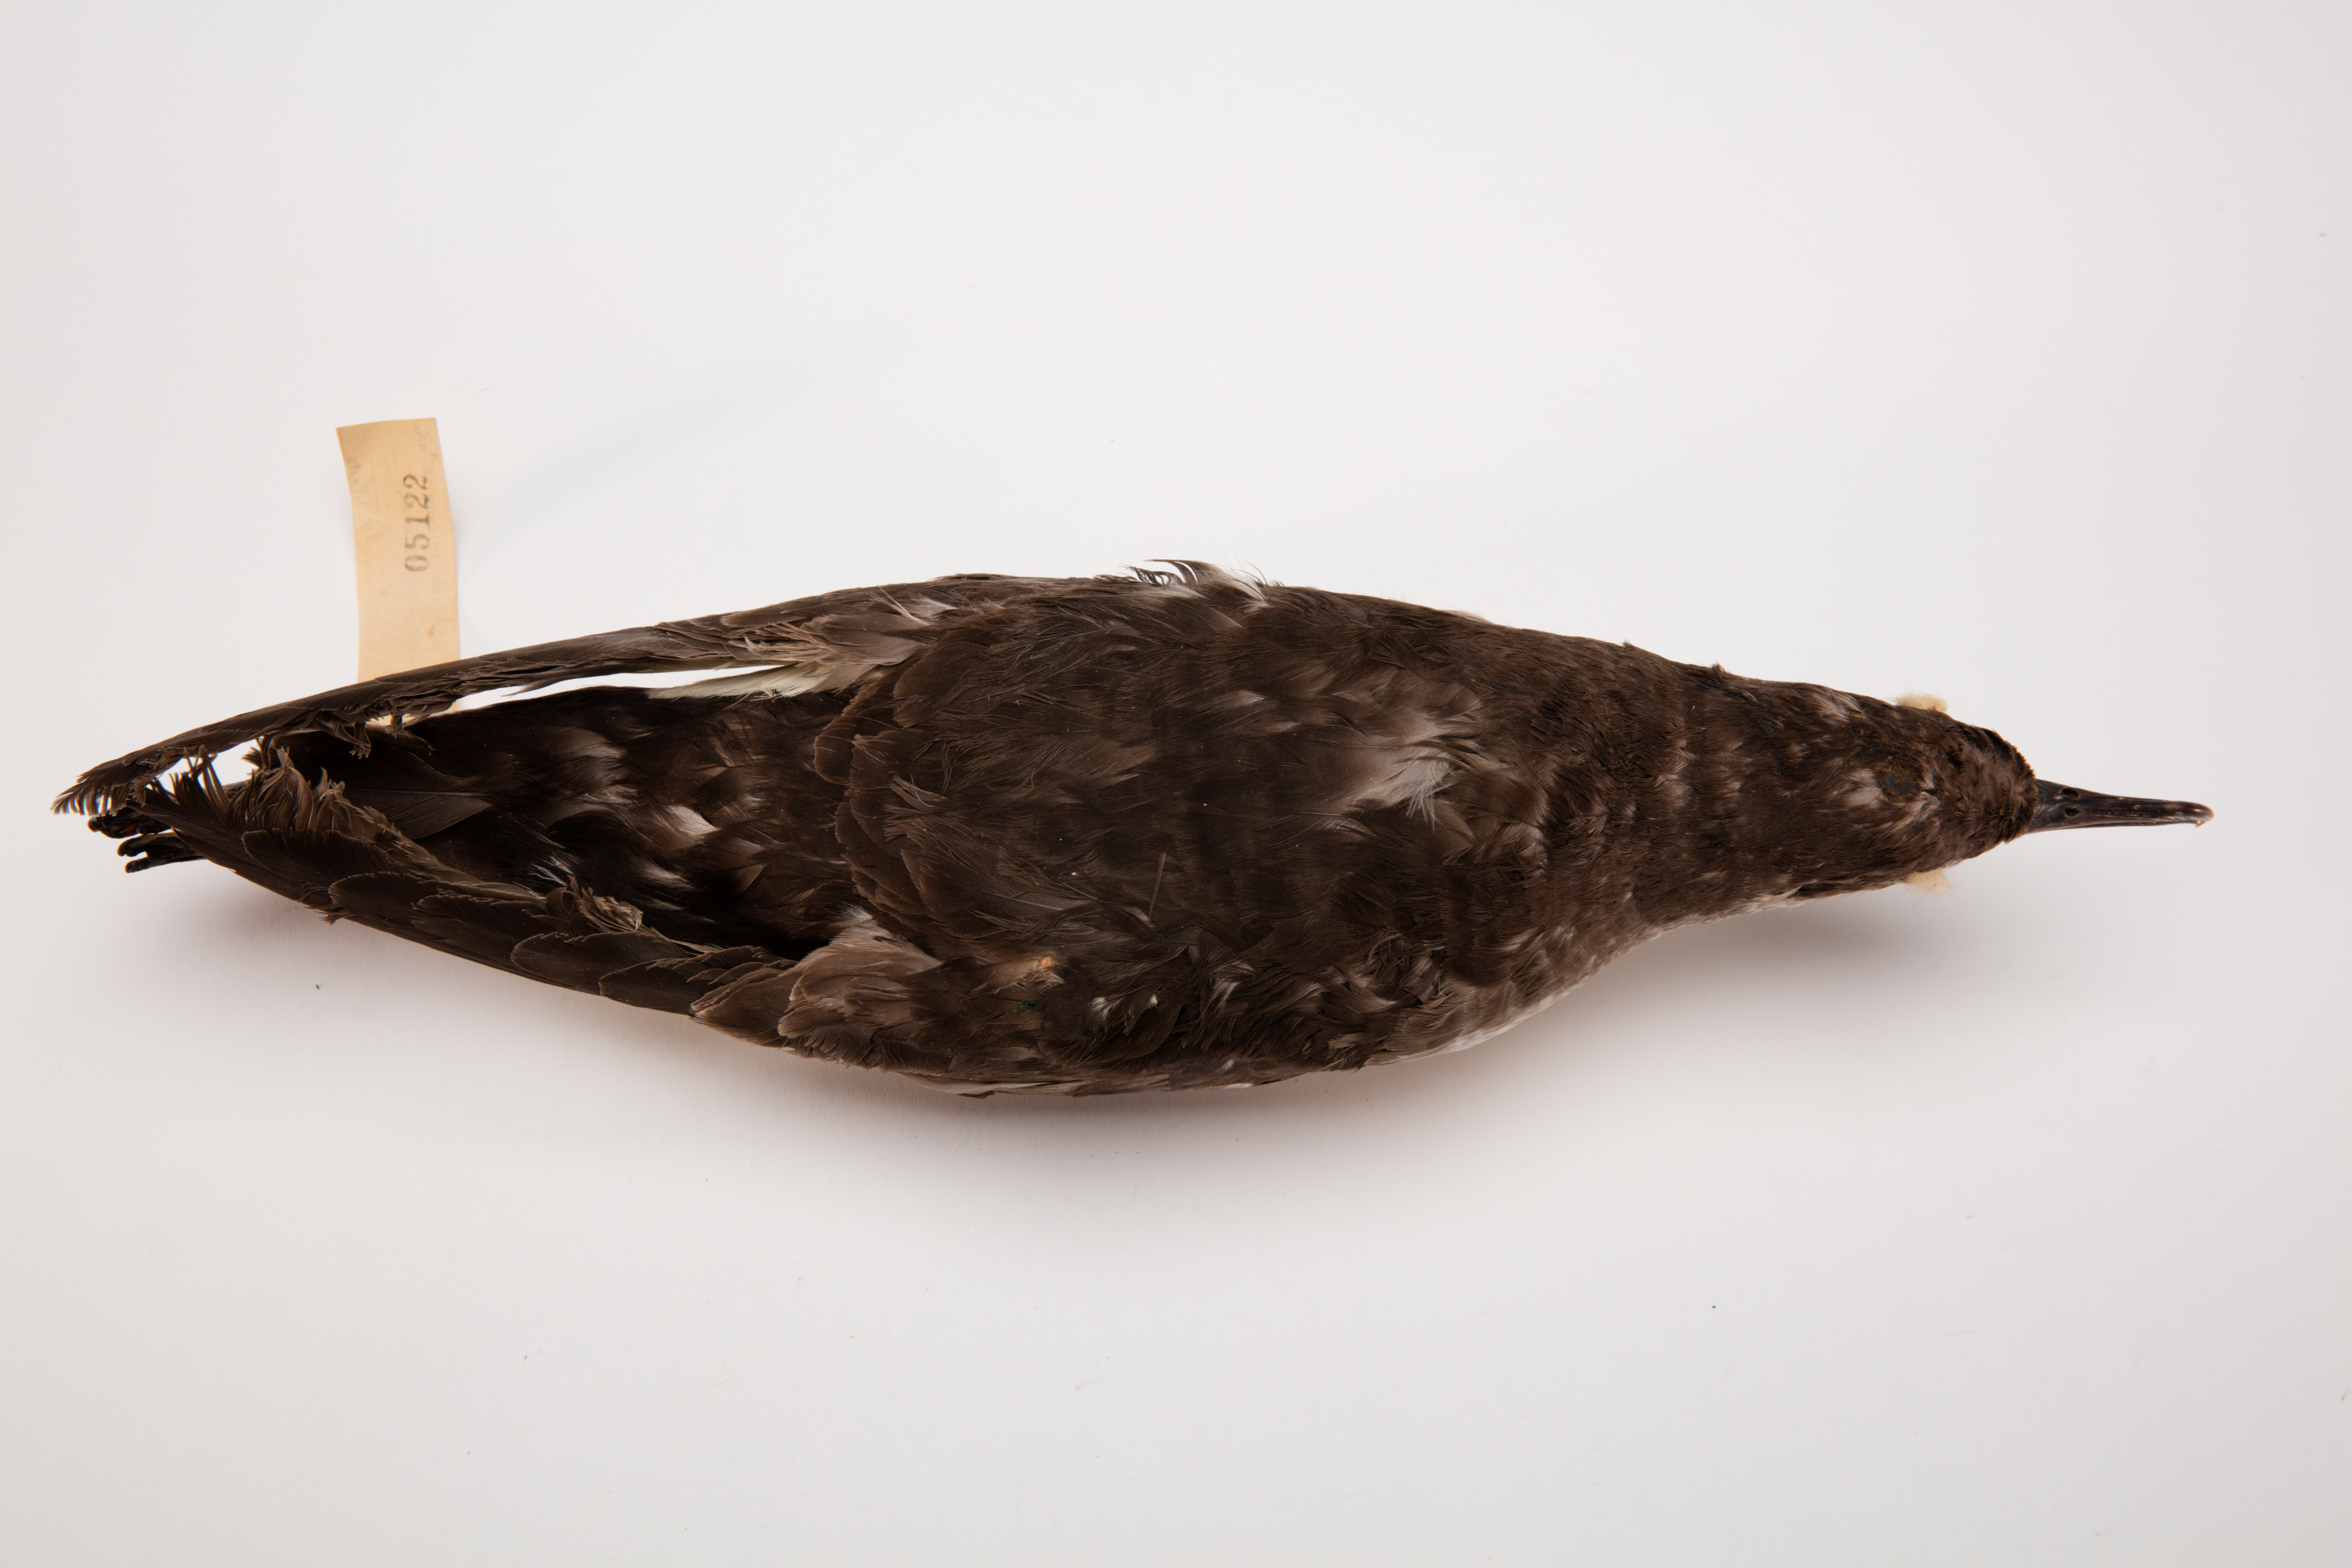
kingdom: Animalia
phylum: Chordata
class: Aves
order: Procellariiformes
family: Procellariidae
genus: Ardenna
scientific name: Ardenna
